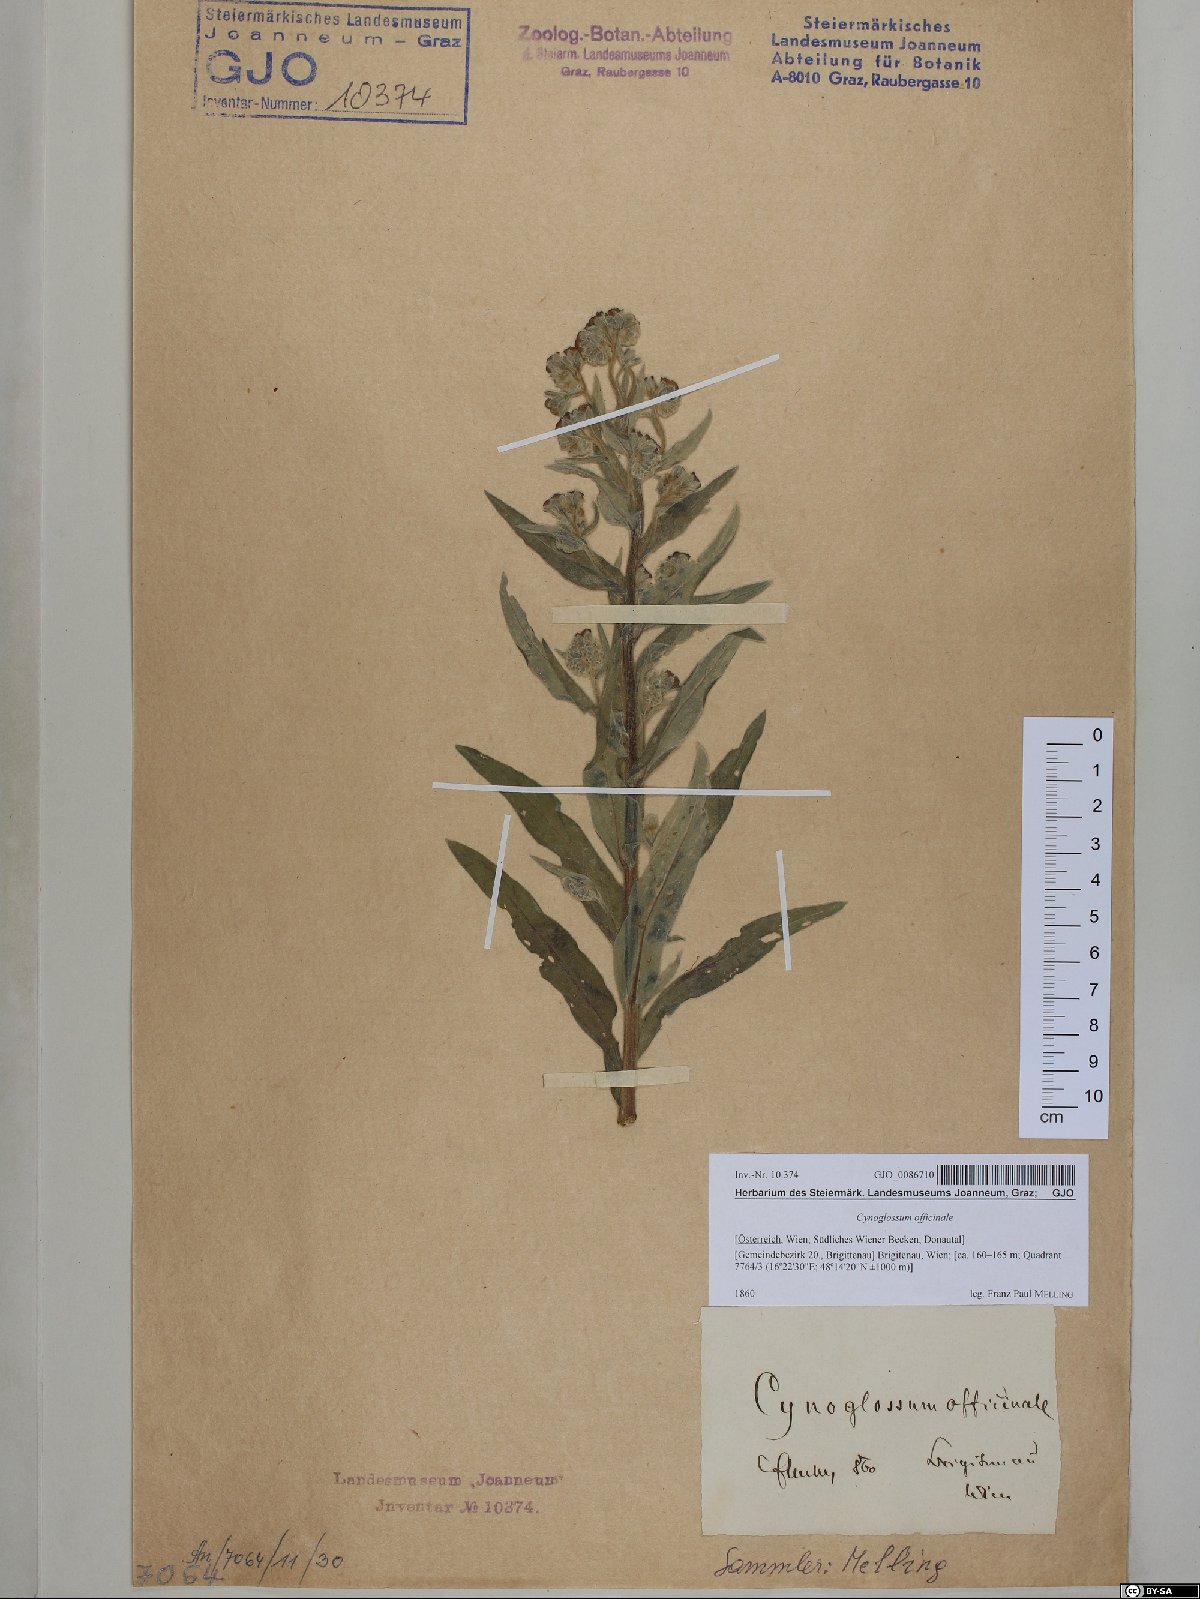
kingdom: Plantae
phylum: Tracheophyta
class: Magnoliopsida
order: Boraginales
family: Boraginaceae
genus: Cynoglossum
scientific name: Cynoglossum officinale
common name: Hound's-tongue
